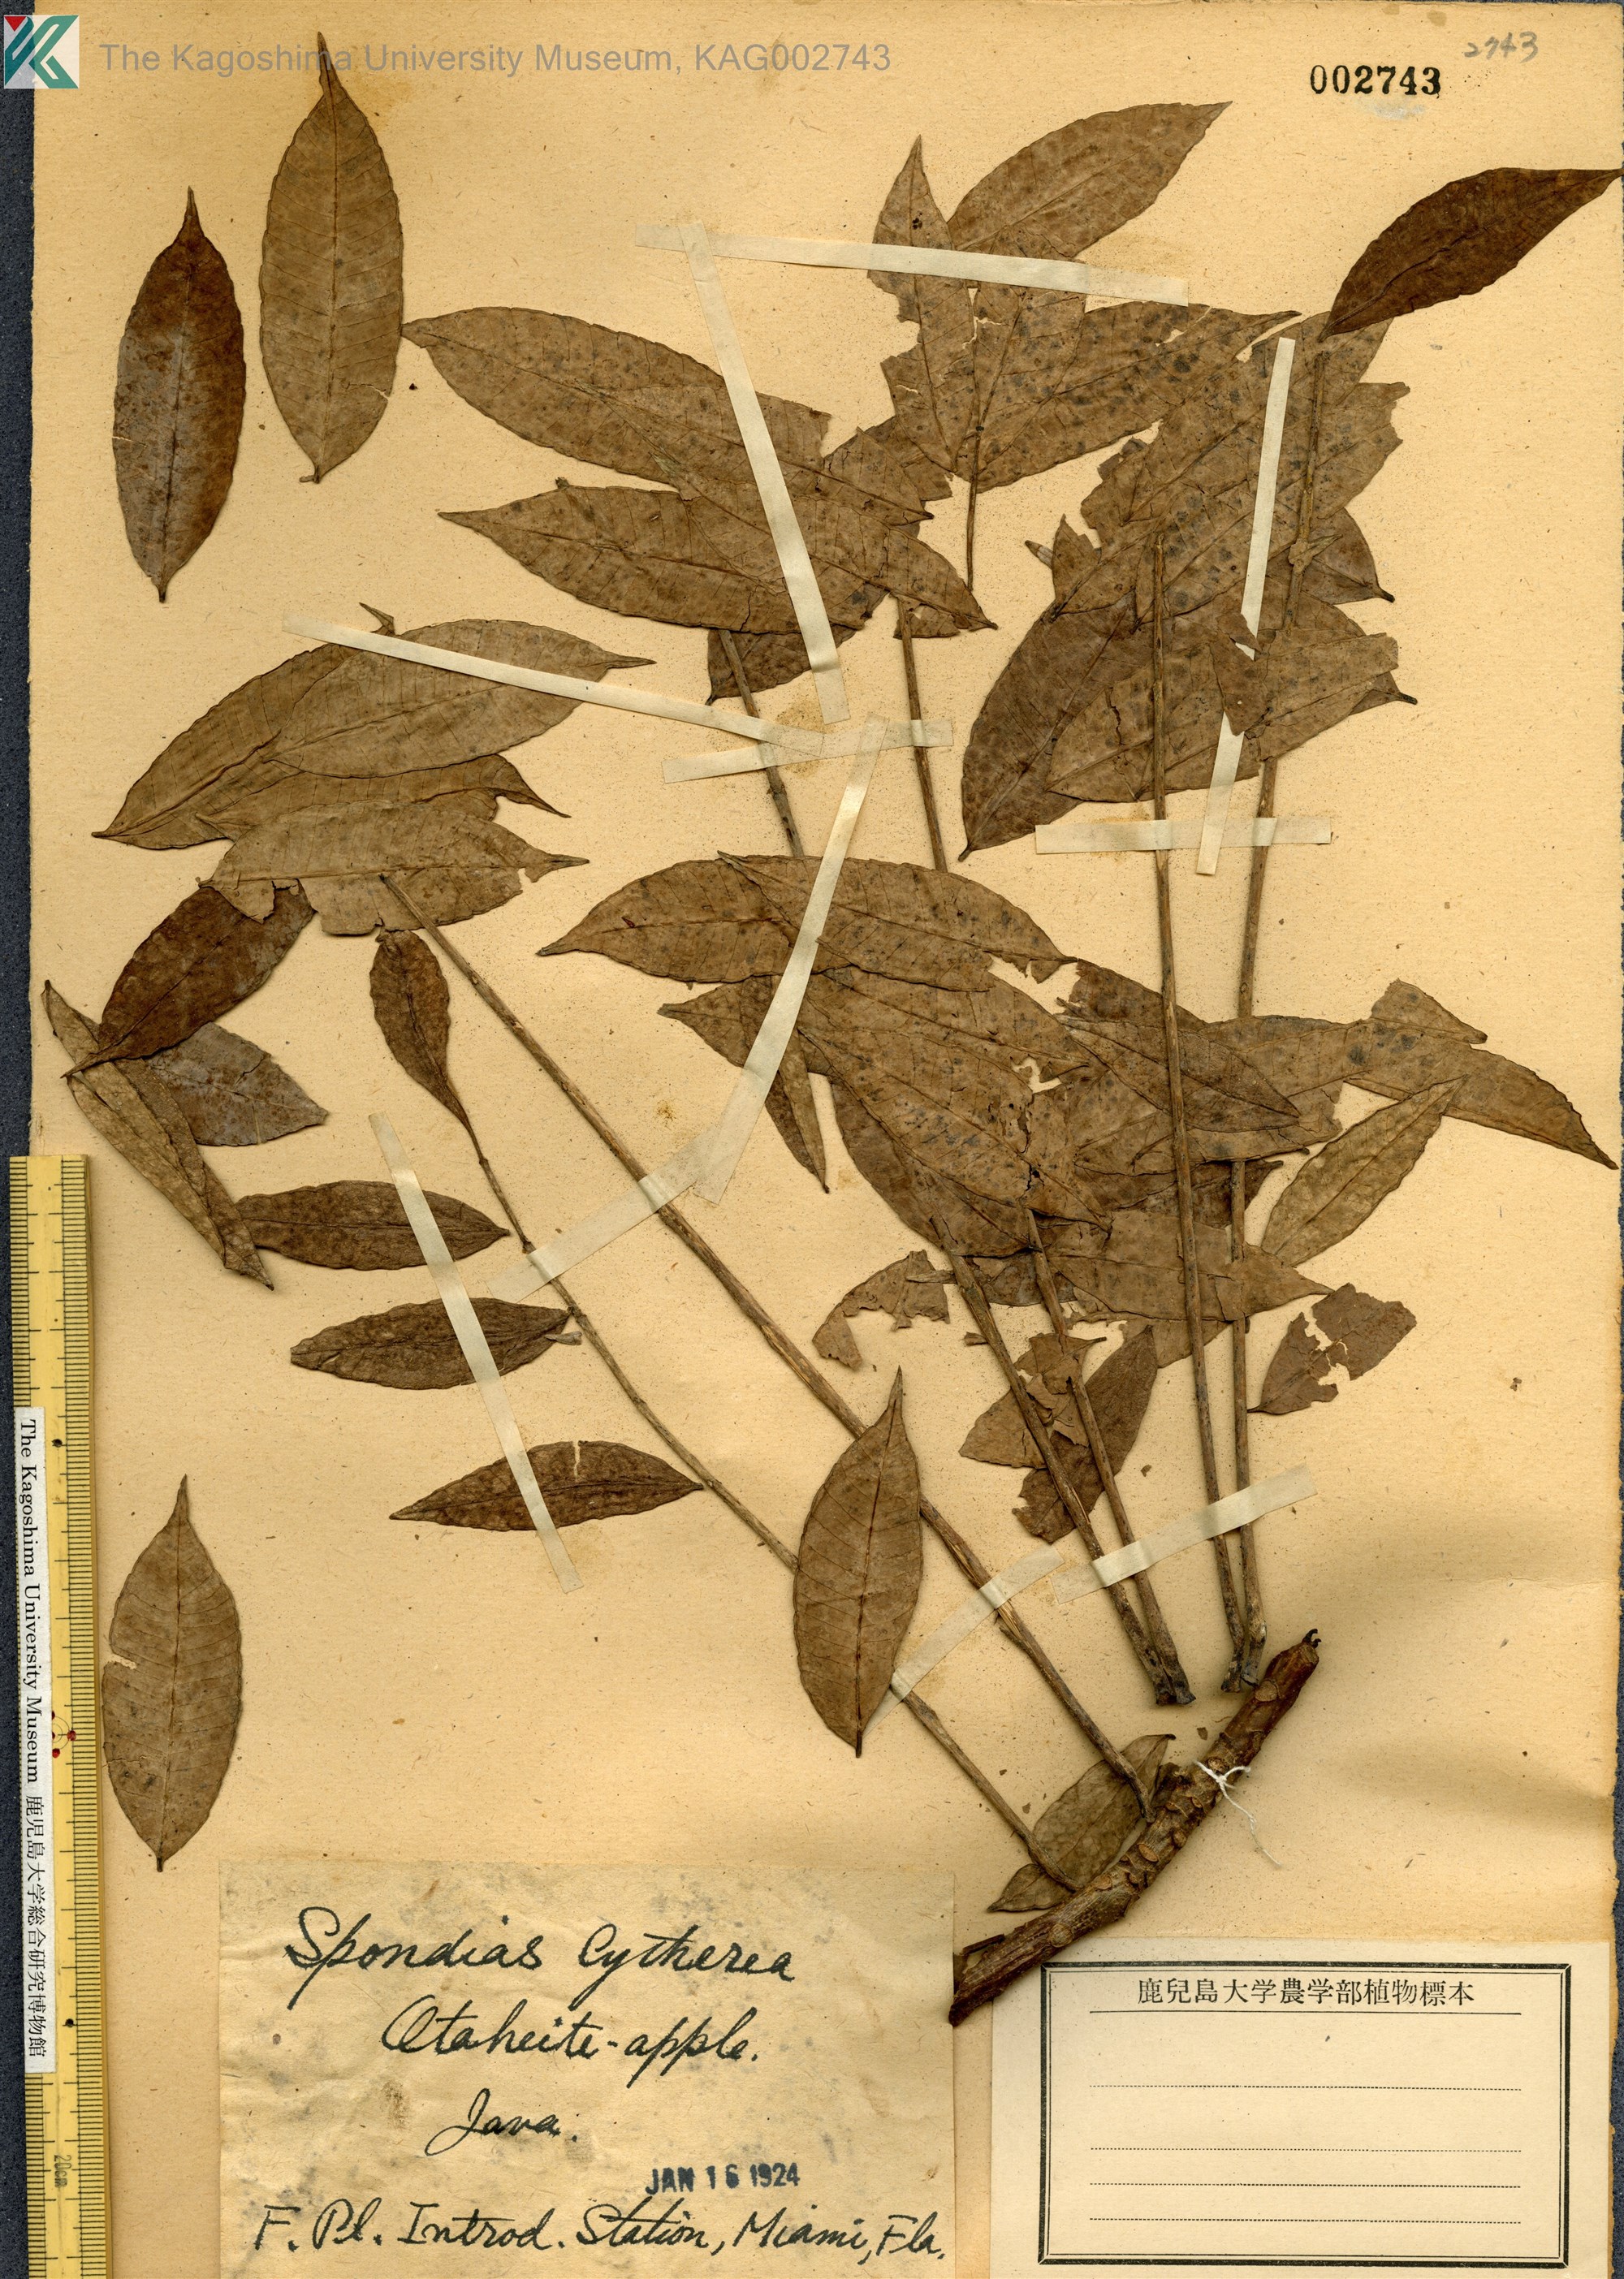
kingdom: Plantae
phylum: Tracheophyta
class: Magnoliopsida
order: Sapindales
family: Anacardiaceae
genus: Spondias
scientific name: Spondias dulcis
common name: Ambarella
